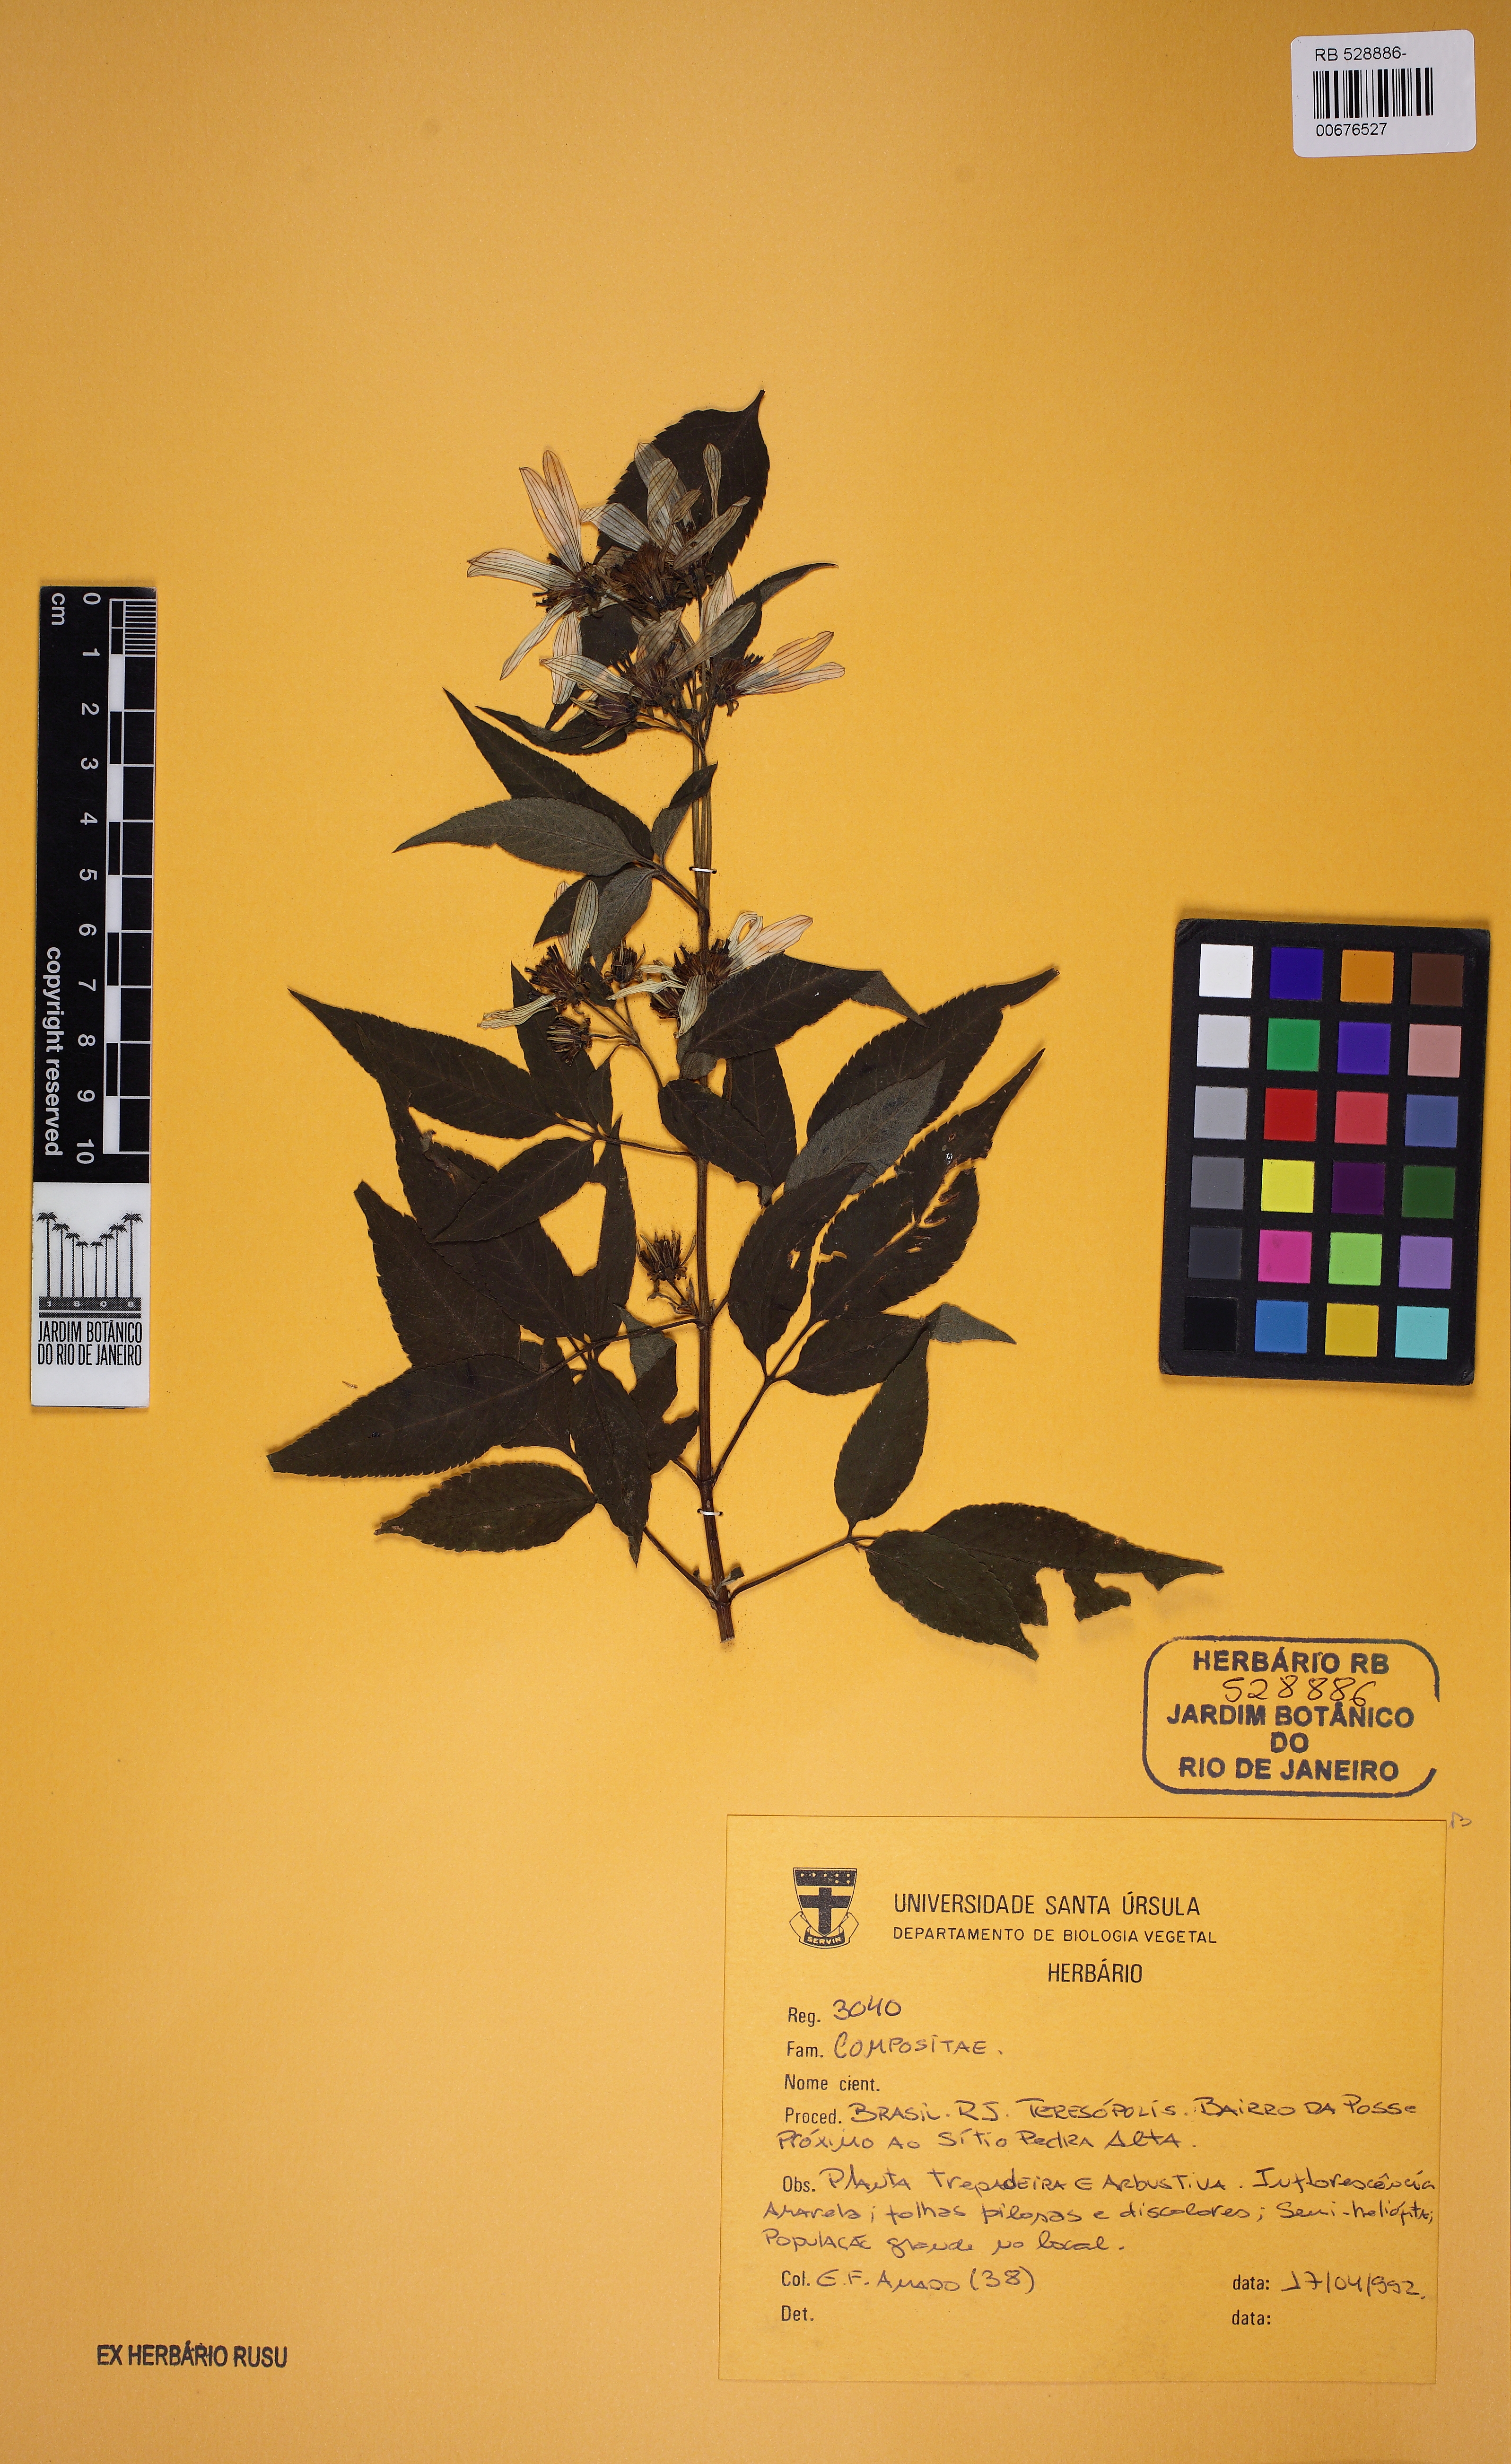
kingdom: Plantae
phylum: Tracheophyta
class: Magnoliopsida
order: Asterales
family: Asteraceae
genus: Bidens
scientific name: Bidens segetum
